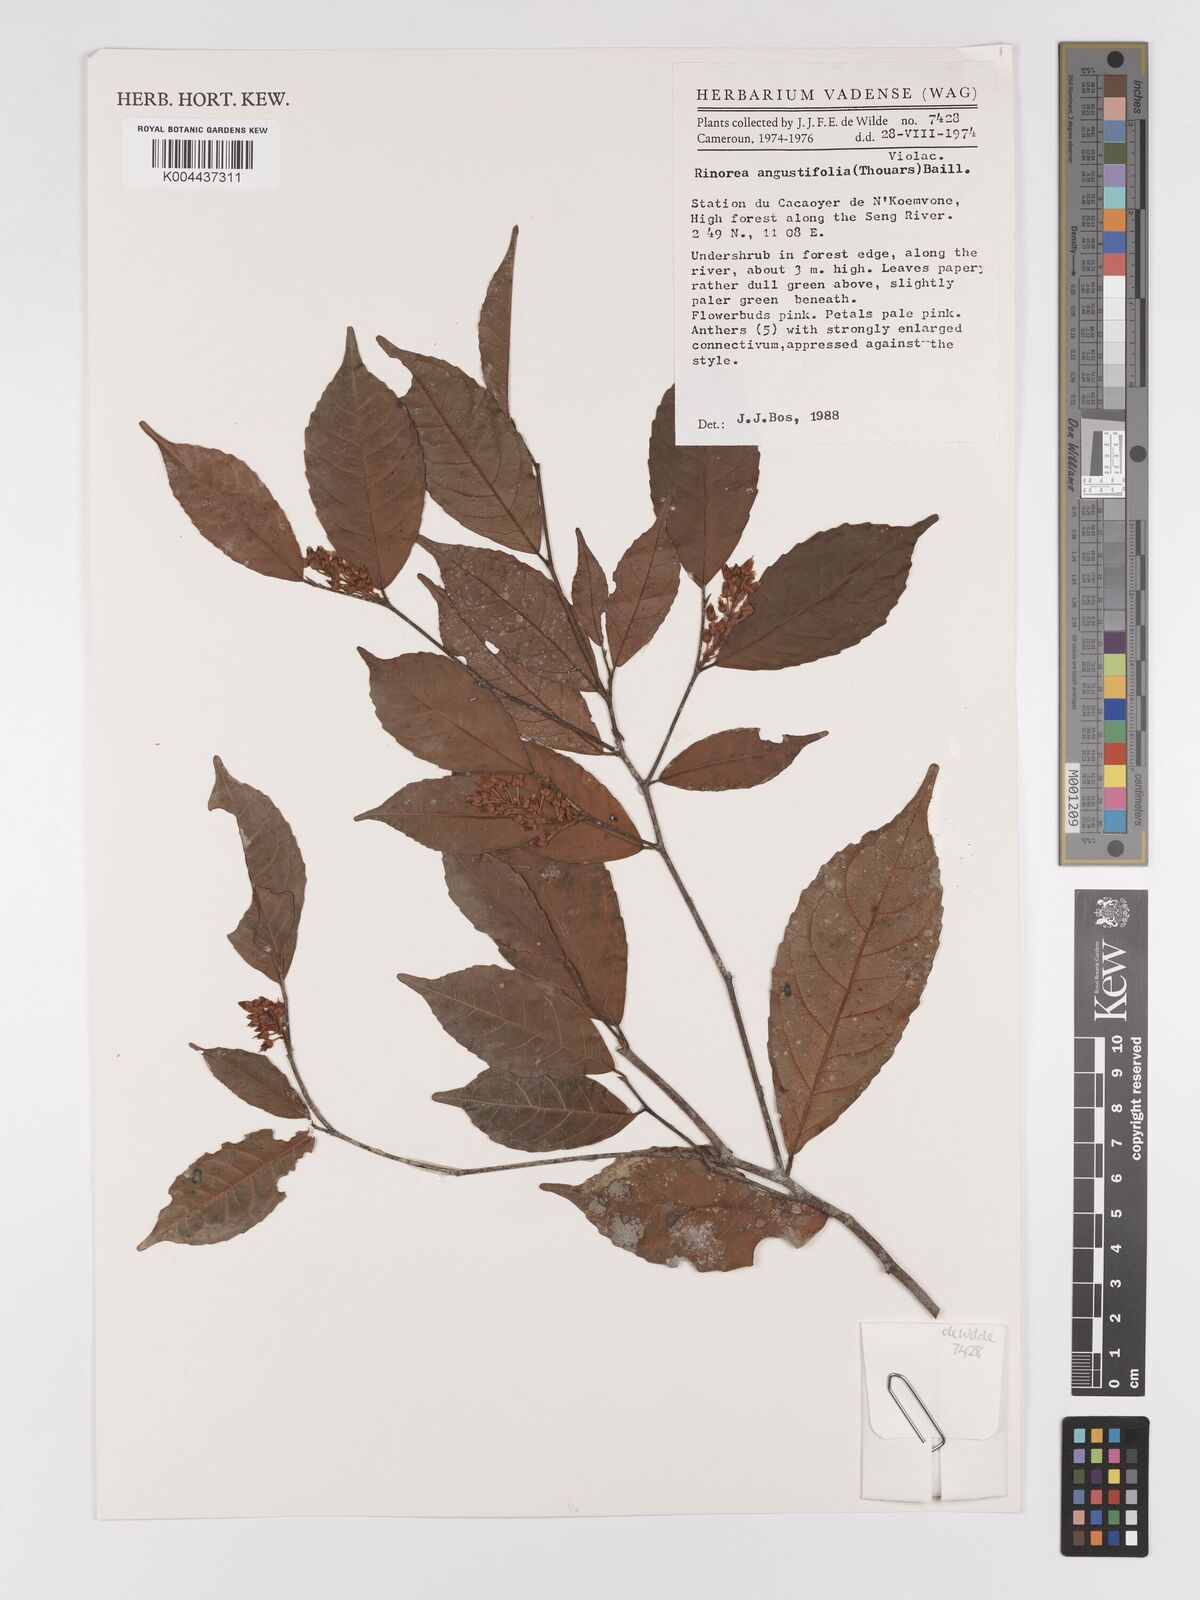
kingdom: Plantae
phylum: Tracheophyta
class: Magnoliopsida
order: Malpighiales
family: Violaceae
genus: Rinorea
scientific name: Rinorea angustifolia
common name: White violet-bush
